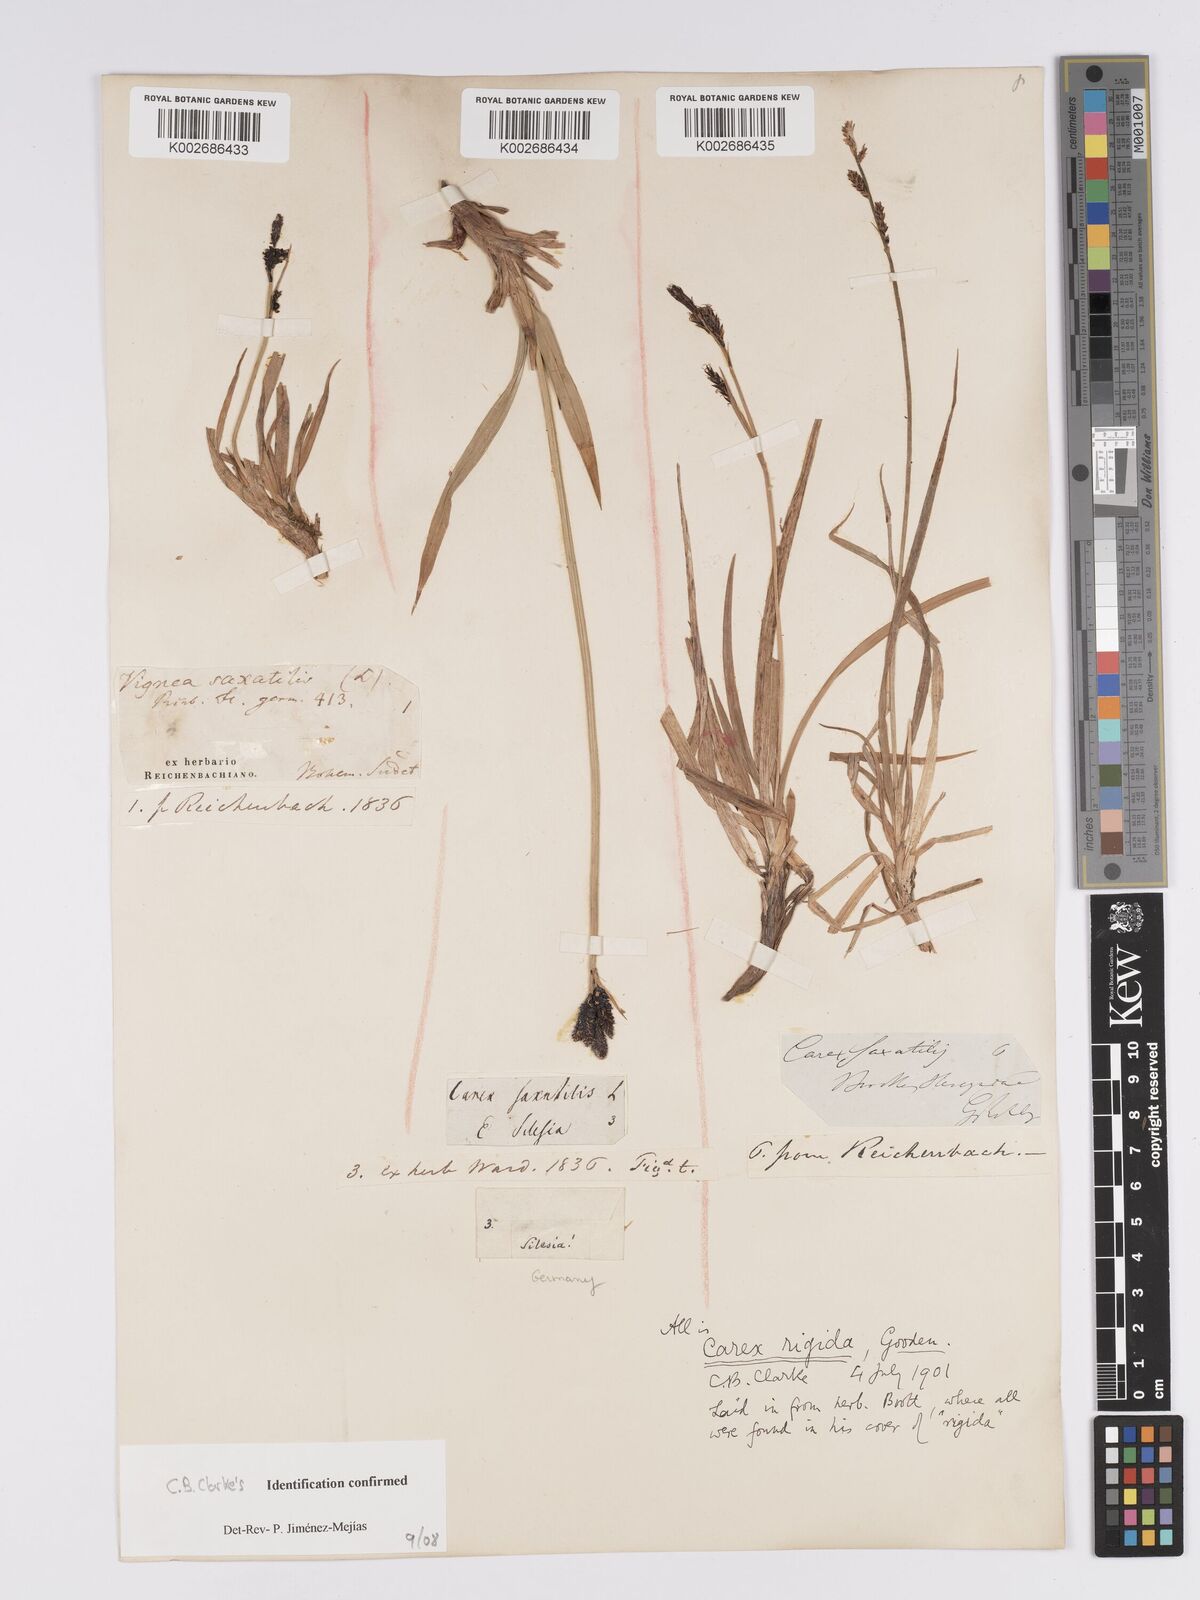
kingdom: Plantae
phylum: Tracheophyta
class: Liliopsida
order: Poales
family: Cyperaceae
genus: Carex
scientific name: Carex bigelowii
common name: Stiff sedge
